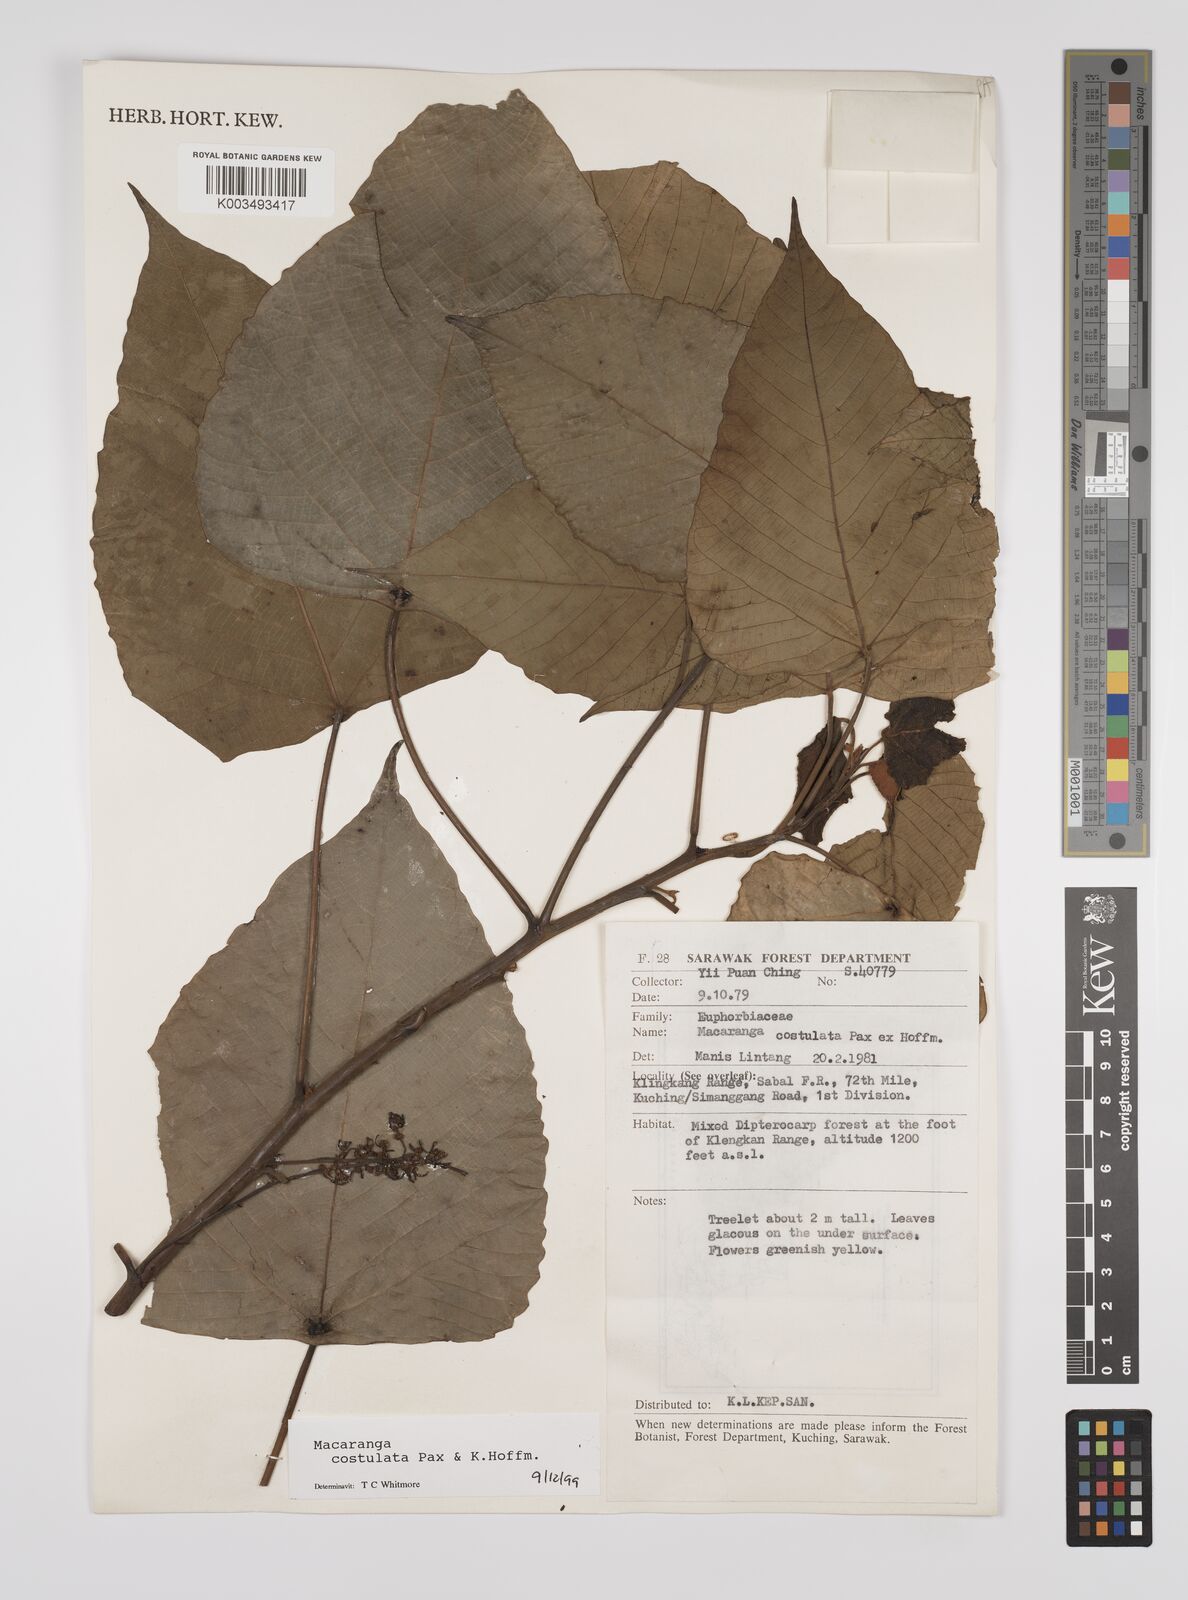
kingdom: Plantae
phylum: Tracheophyta
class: Magnoliopsida
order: Malpighiales
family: Euphorbiaceae
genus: Macaranga
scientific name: Macaranga costulata
